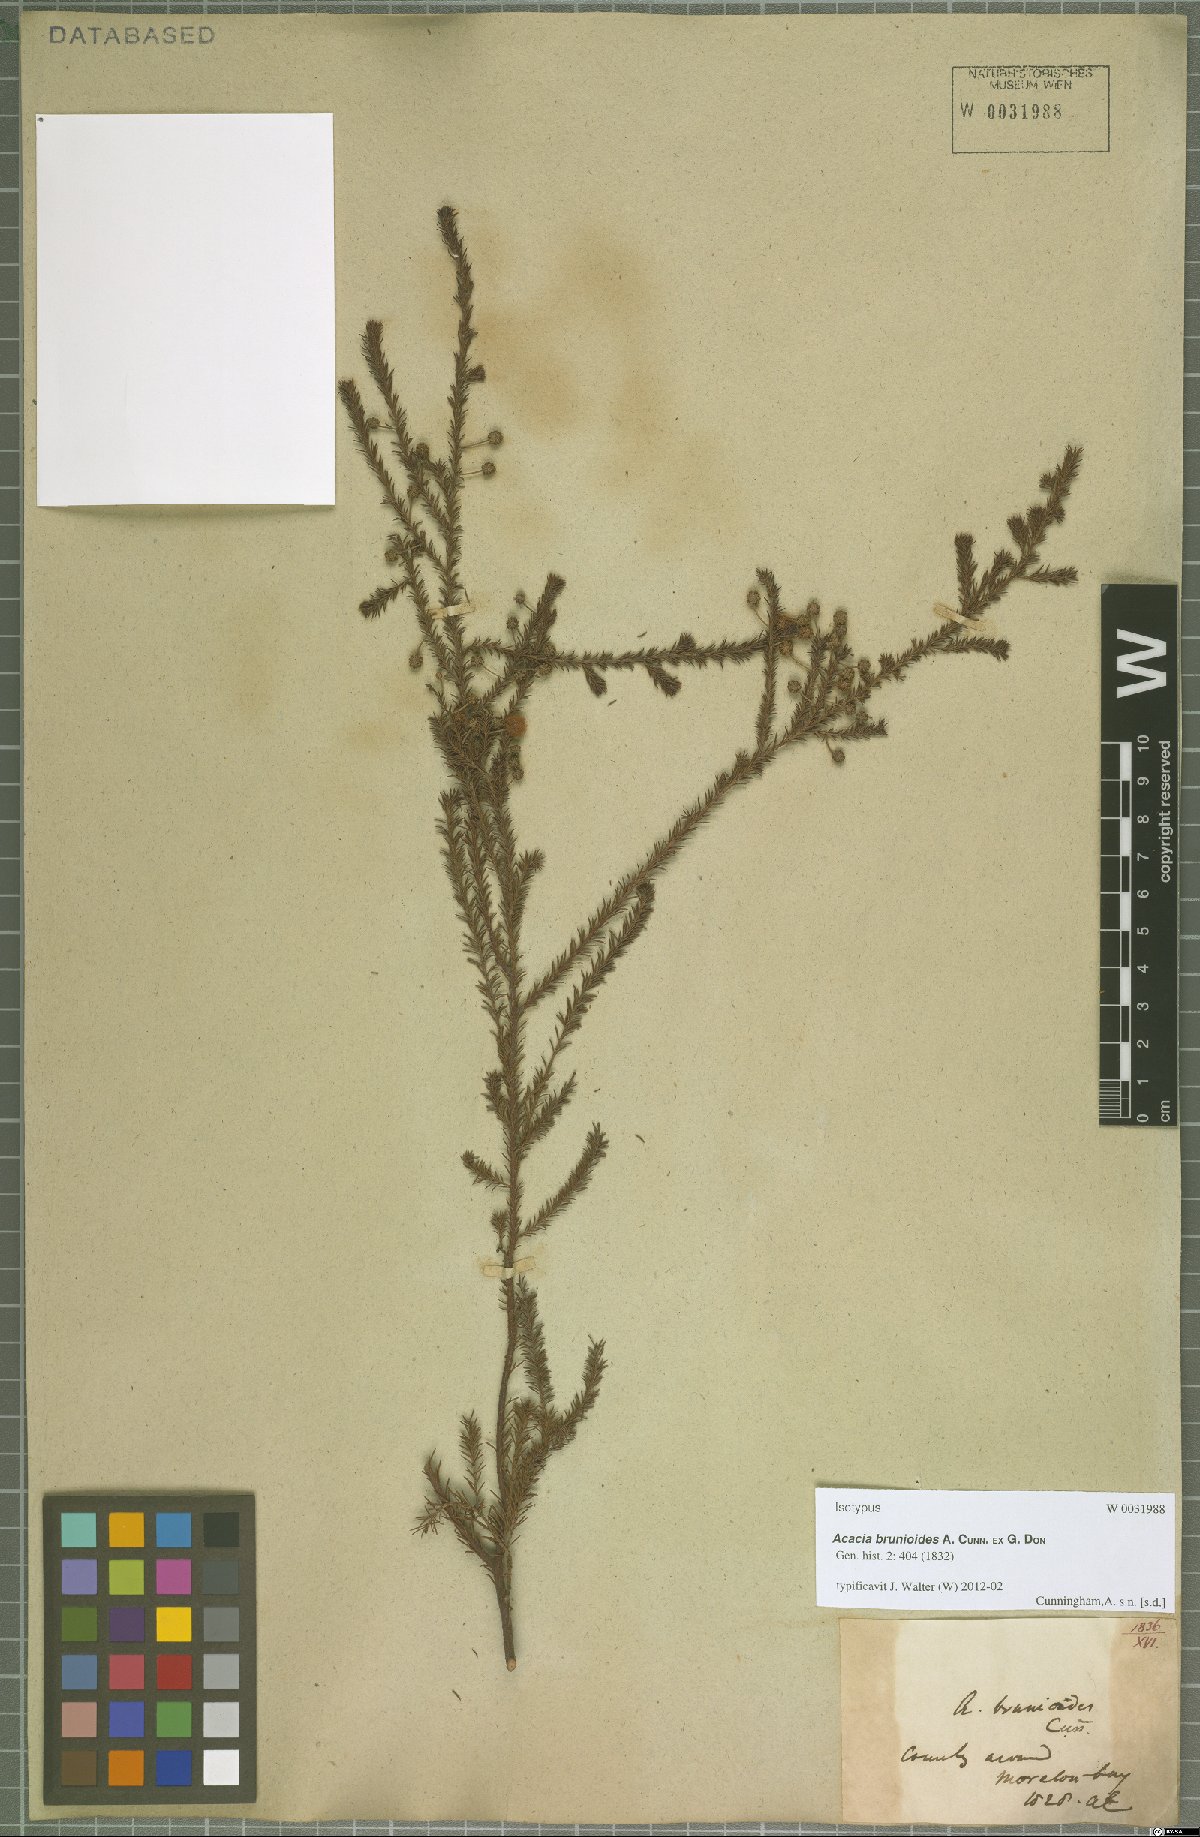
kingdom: Plantae
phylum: Tracheophyta
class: Magnoliopsida
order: Fabales
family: Fabaceae
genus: Acacia
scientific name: Acacia brunioides
